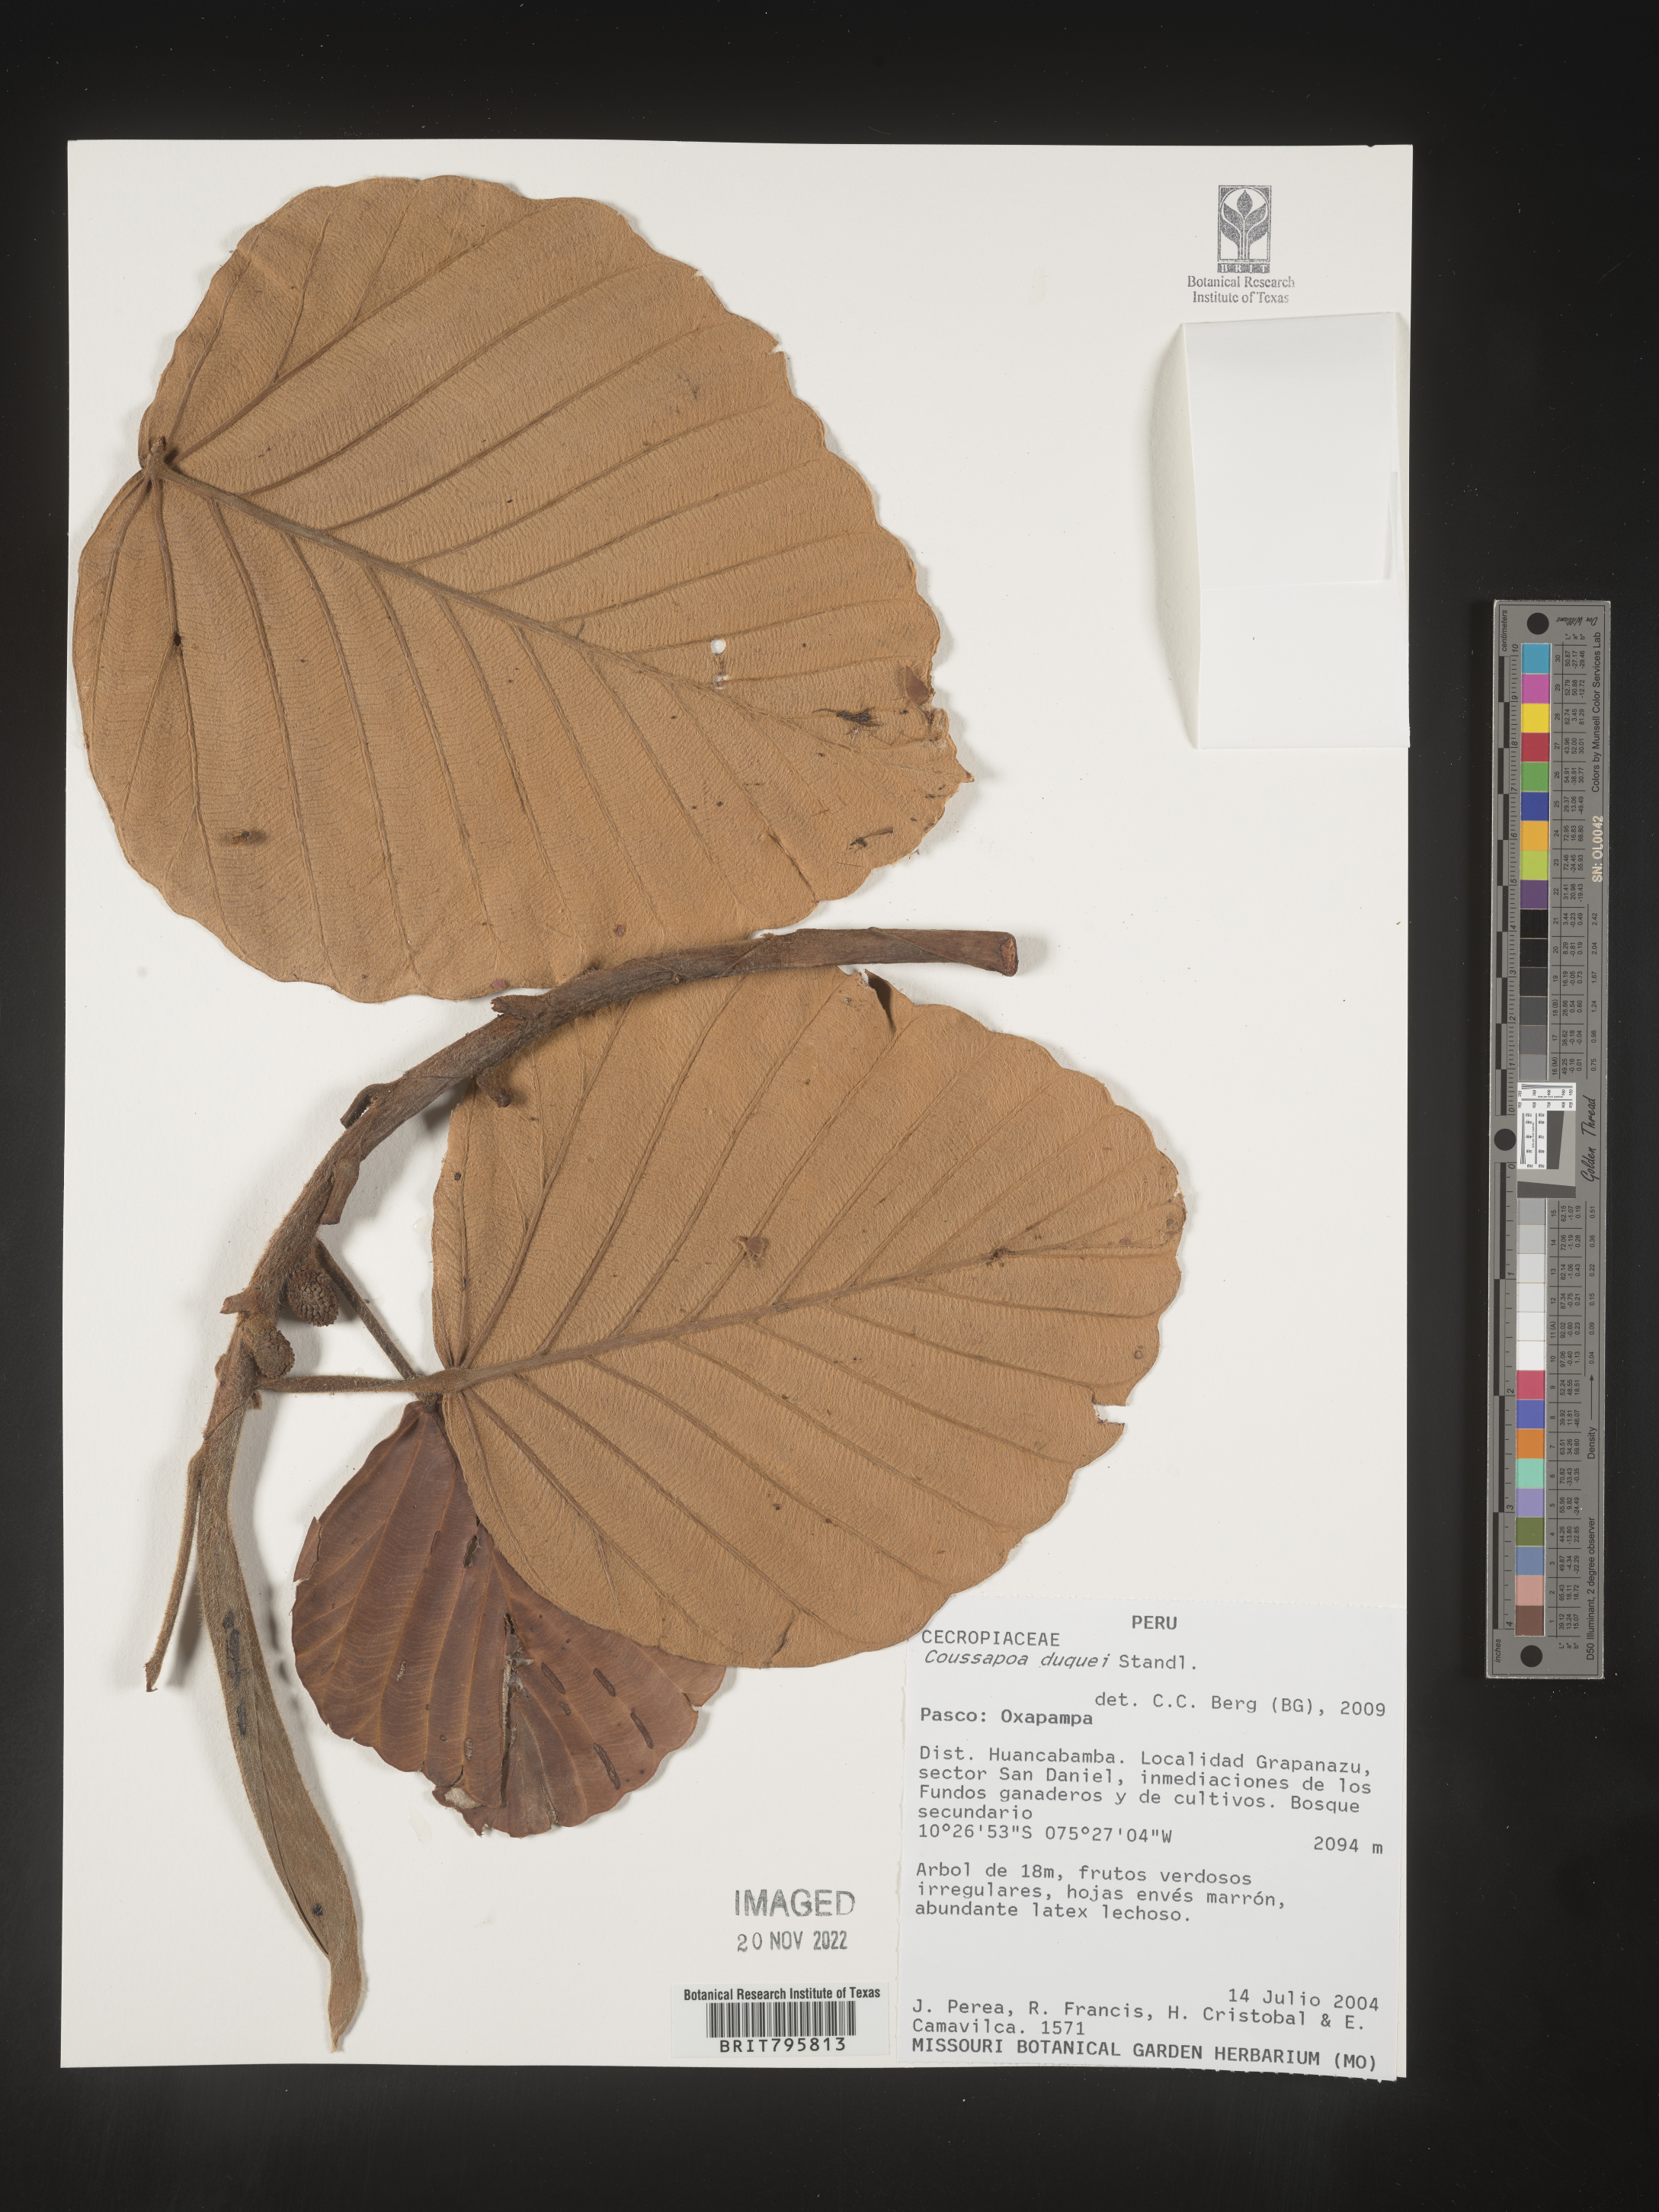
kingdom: Plantae
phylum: Tracheophyta
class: Magnoliopsida
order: Rosales
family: Urticaceae
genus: Coussapoa
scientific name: Coussapoa
